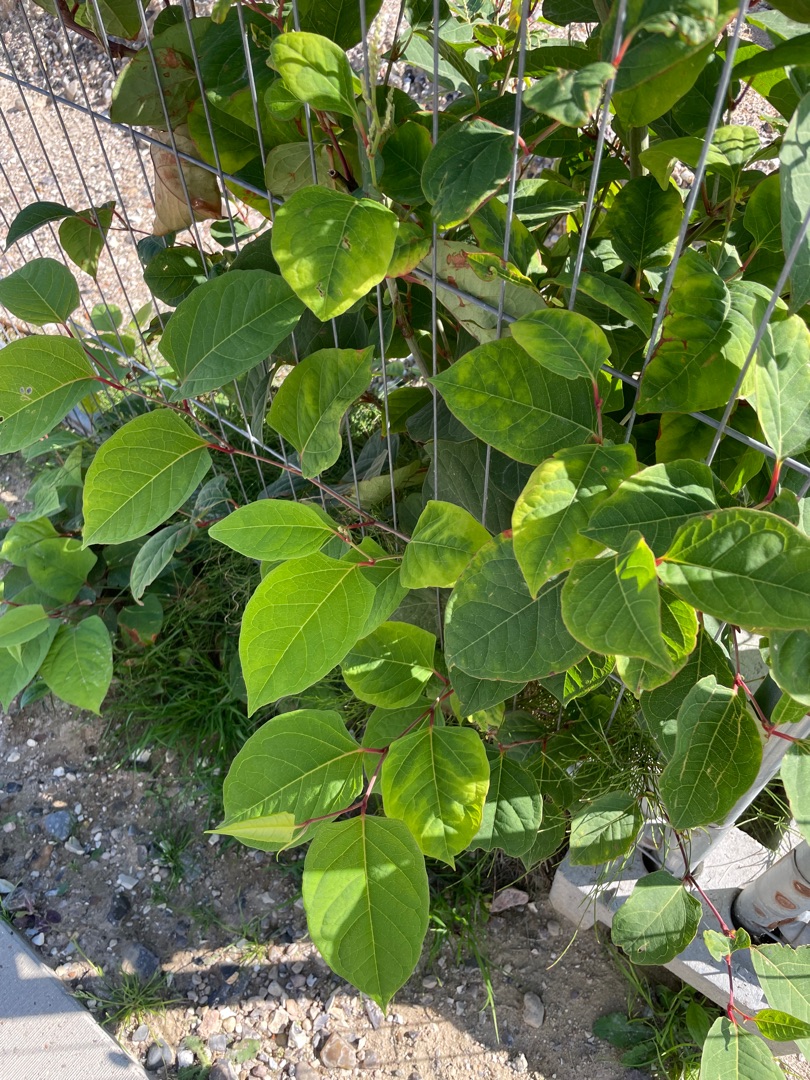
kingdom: Plantae
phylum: Tracheophyta
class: Magnoliopsida
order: Caryophyllales
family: Polygonaceae
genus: Reynoutria
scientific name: Reynoutria japonica
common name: Japan-pileurt
